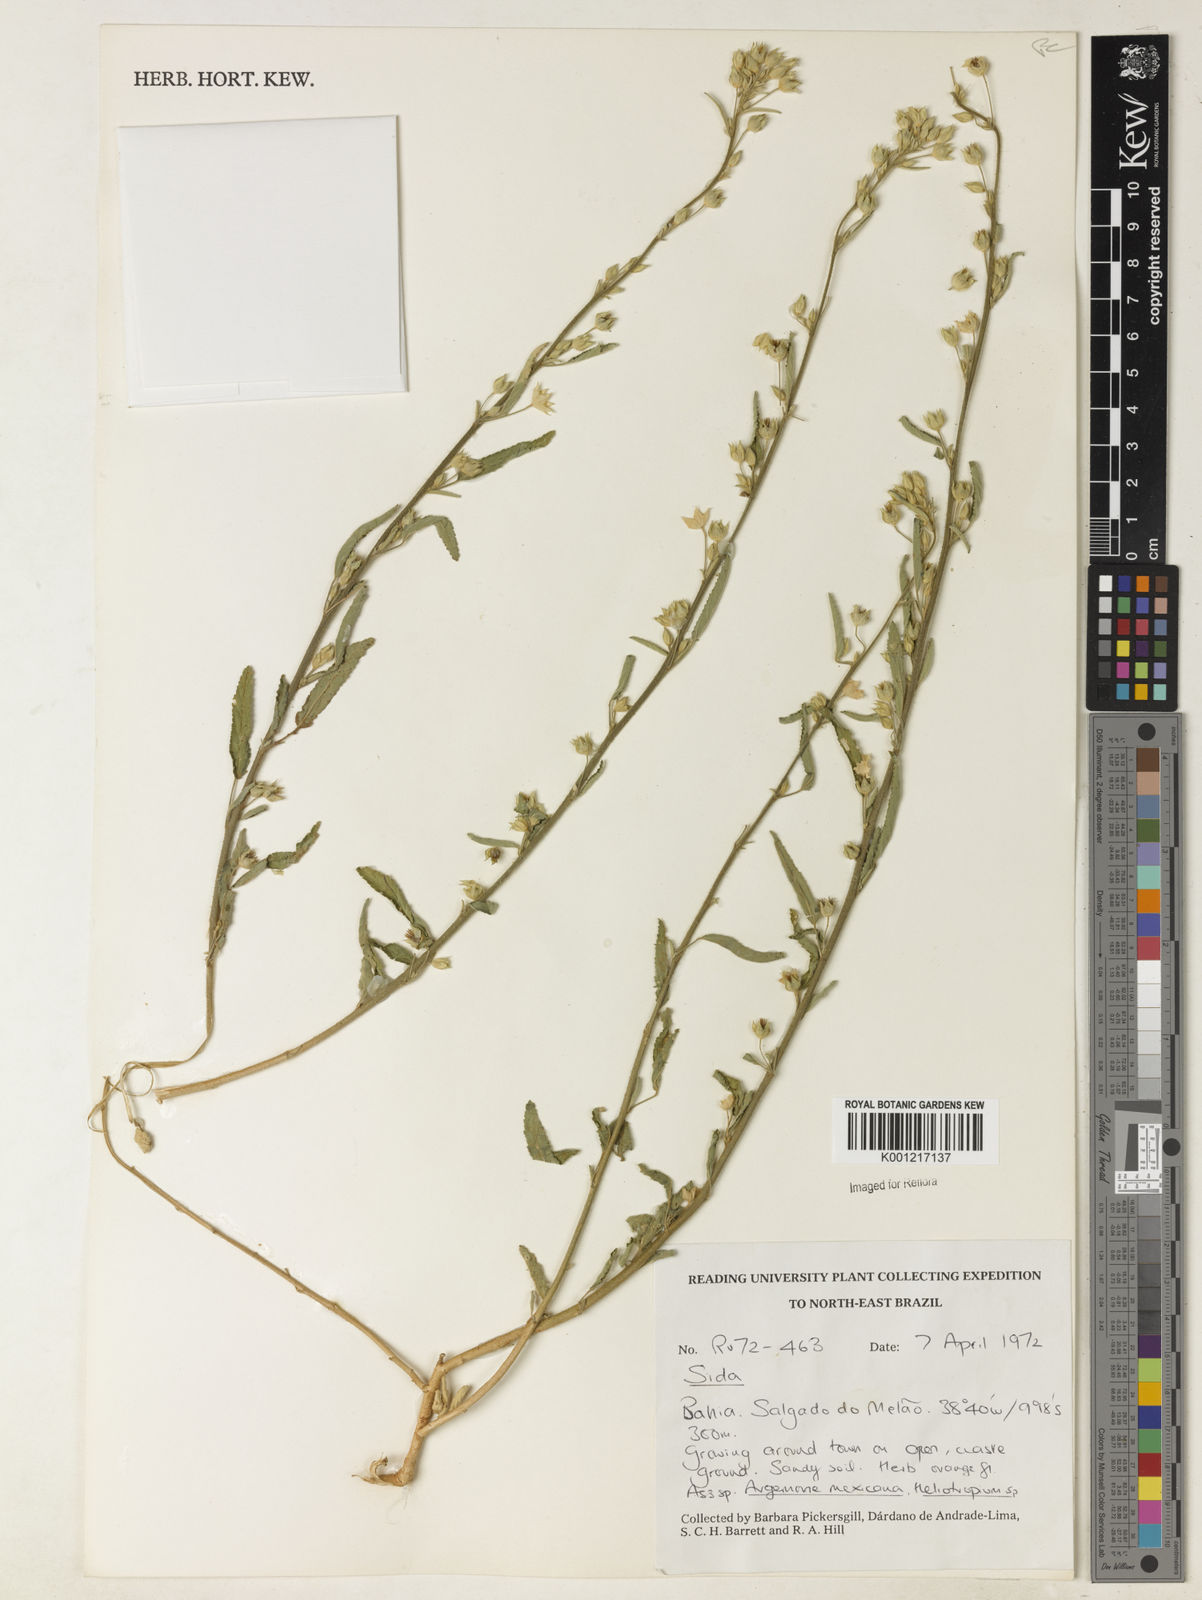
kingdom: Plantae
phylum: Tracheophyta
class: Magnoliopsida
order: Malvales
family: Malvaceae
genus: Sida
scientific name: Sida
